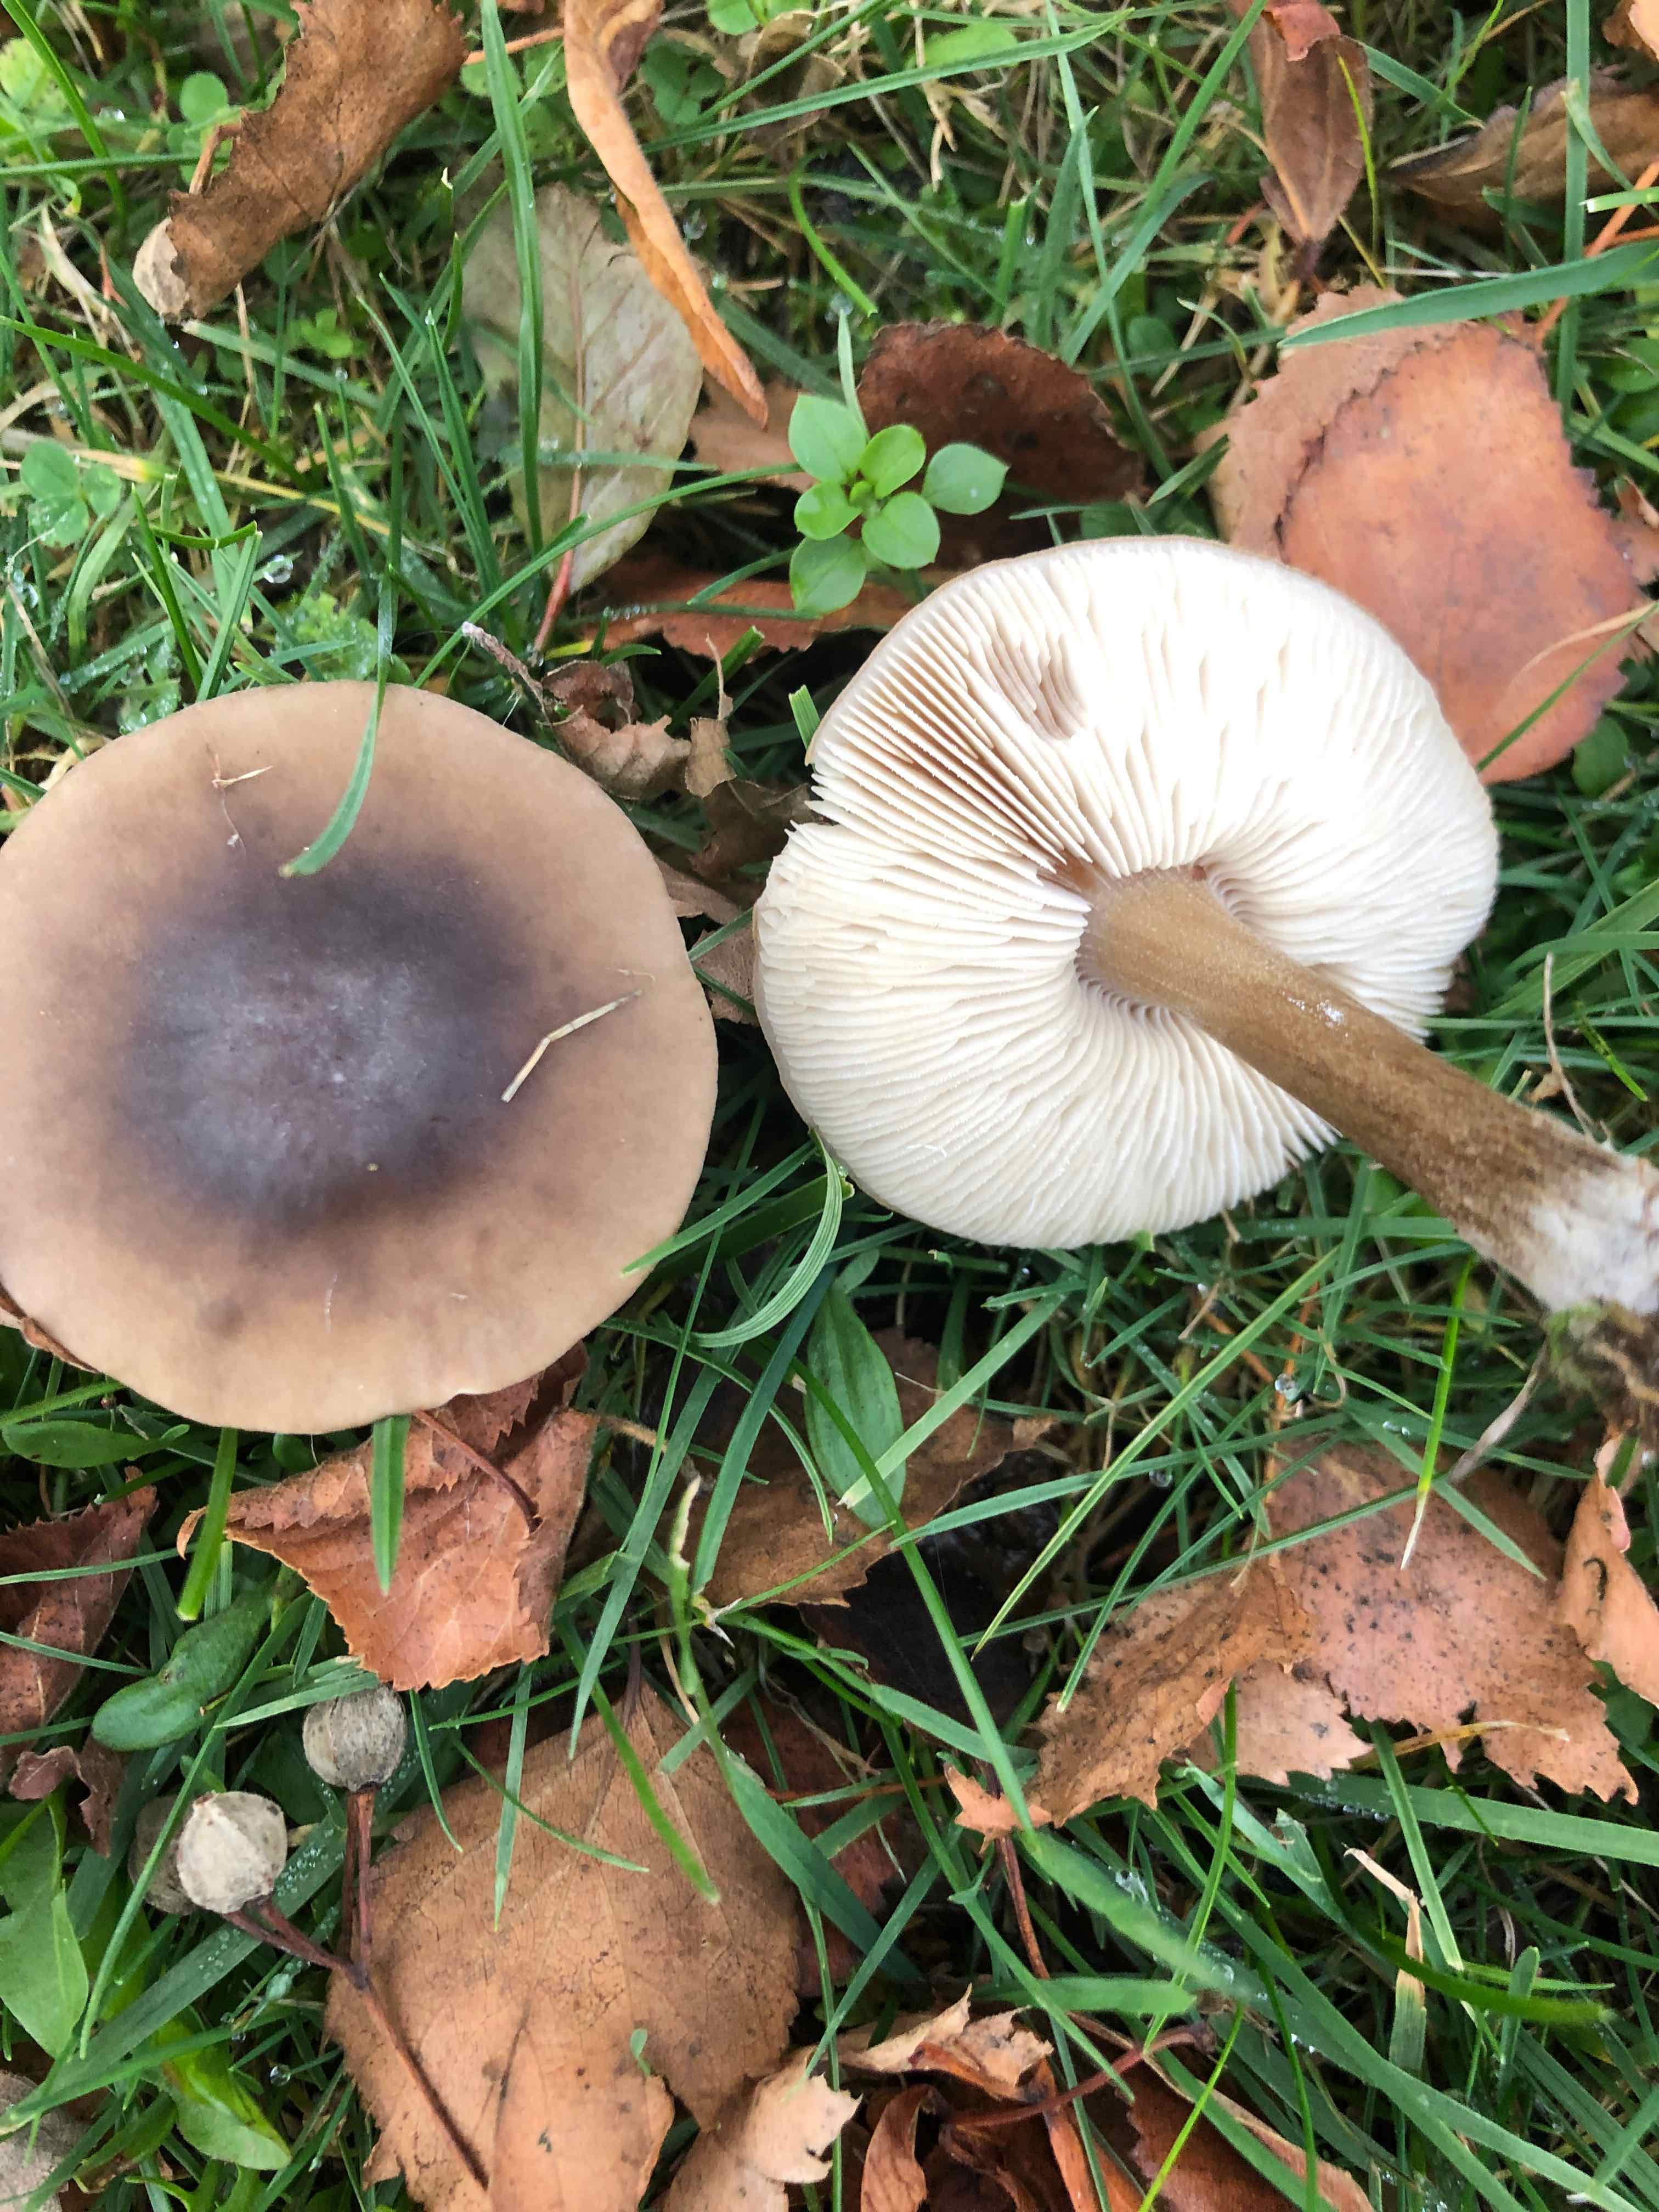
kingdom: Fungi
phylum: Basidiomycota
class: Agaricomycetes
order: Agaricales
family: Tricholomataceae
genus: Melanoleuca
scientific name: Melanoleuca
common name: munkehat
